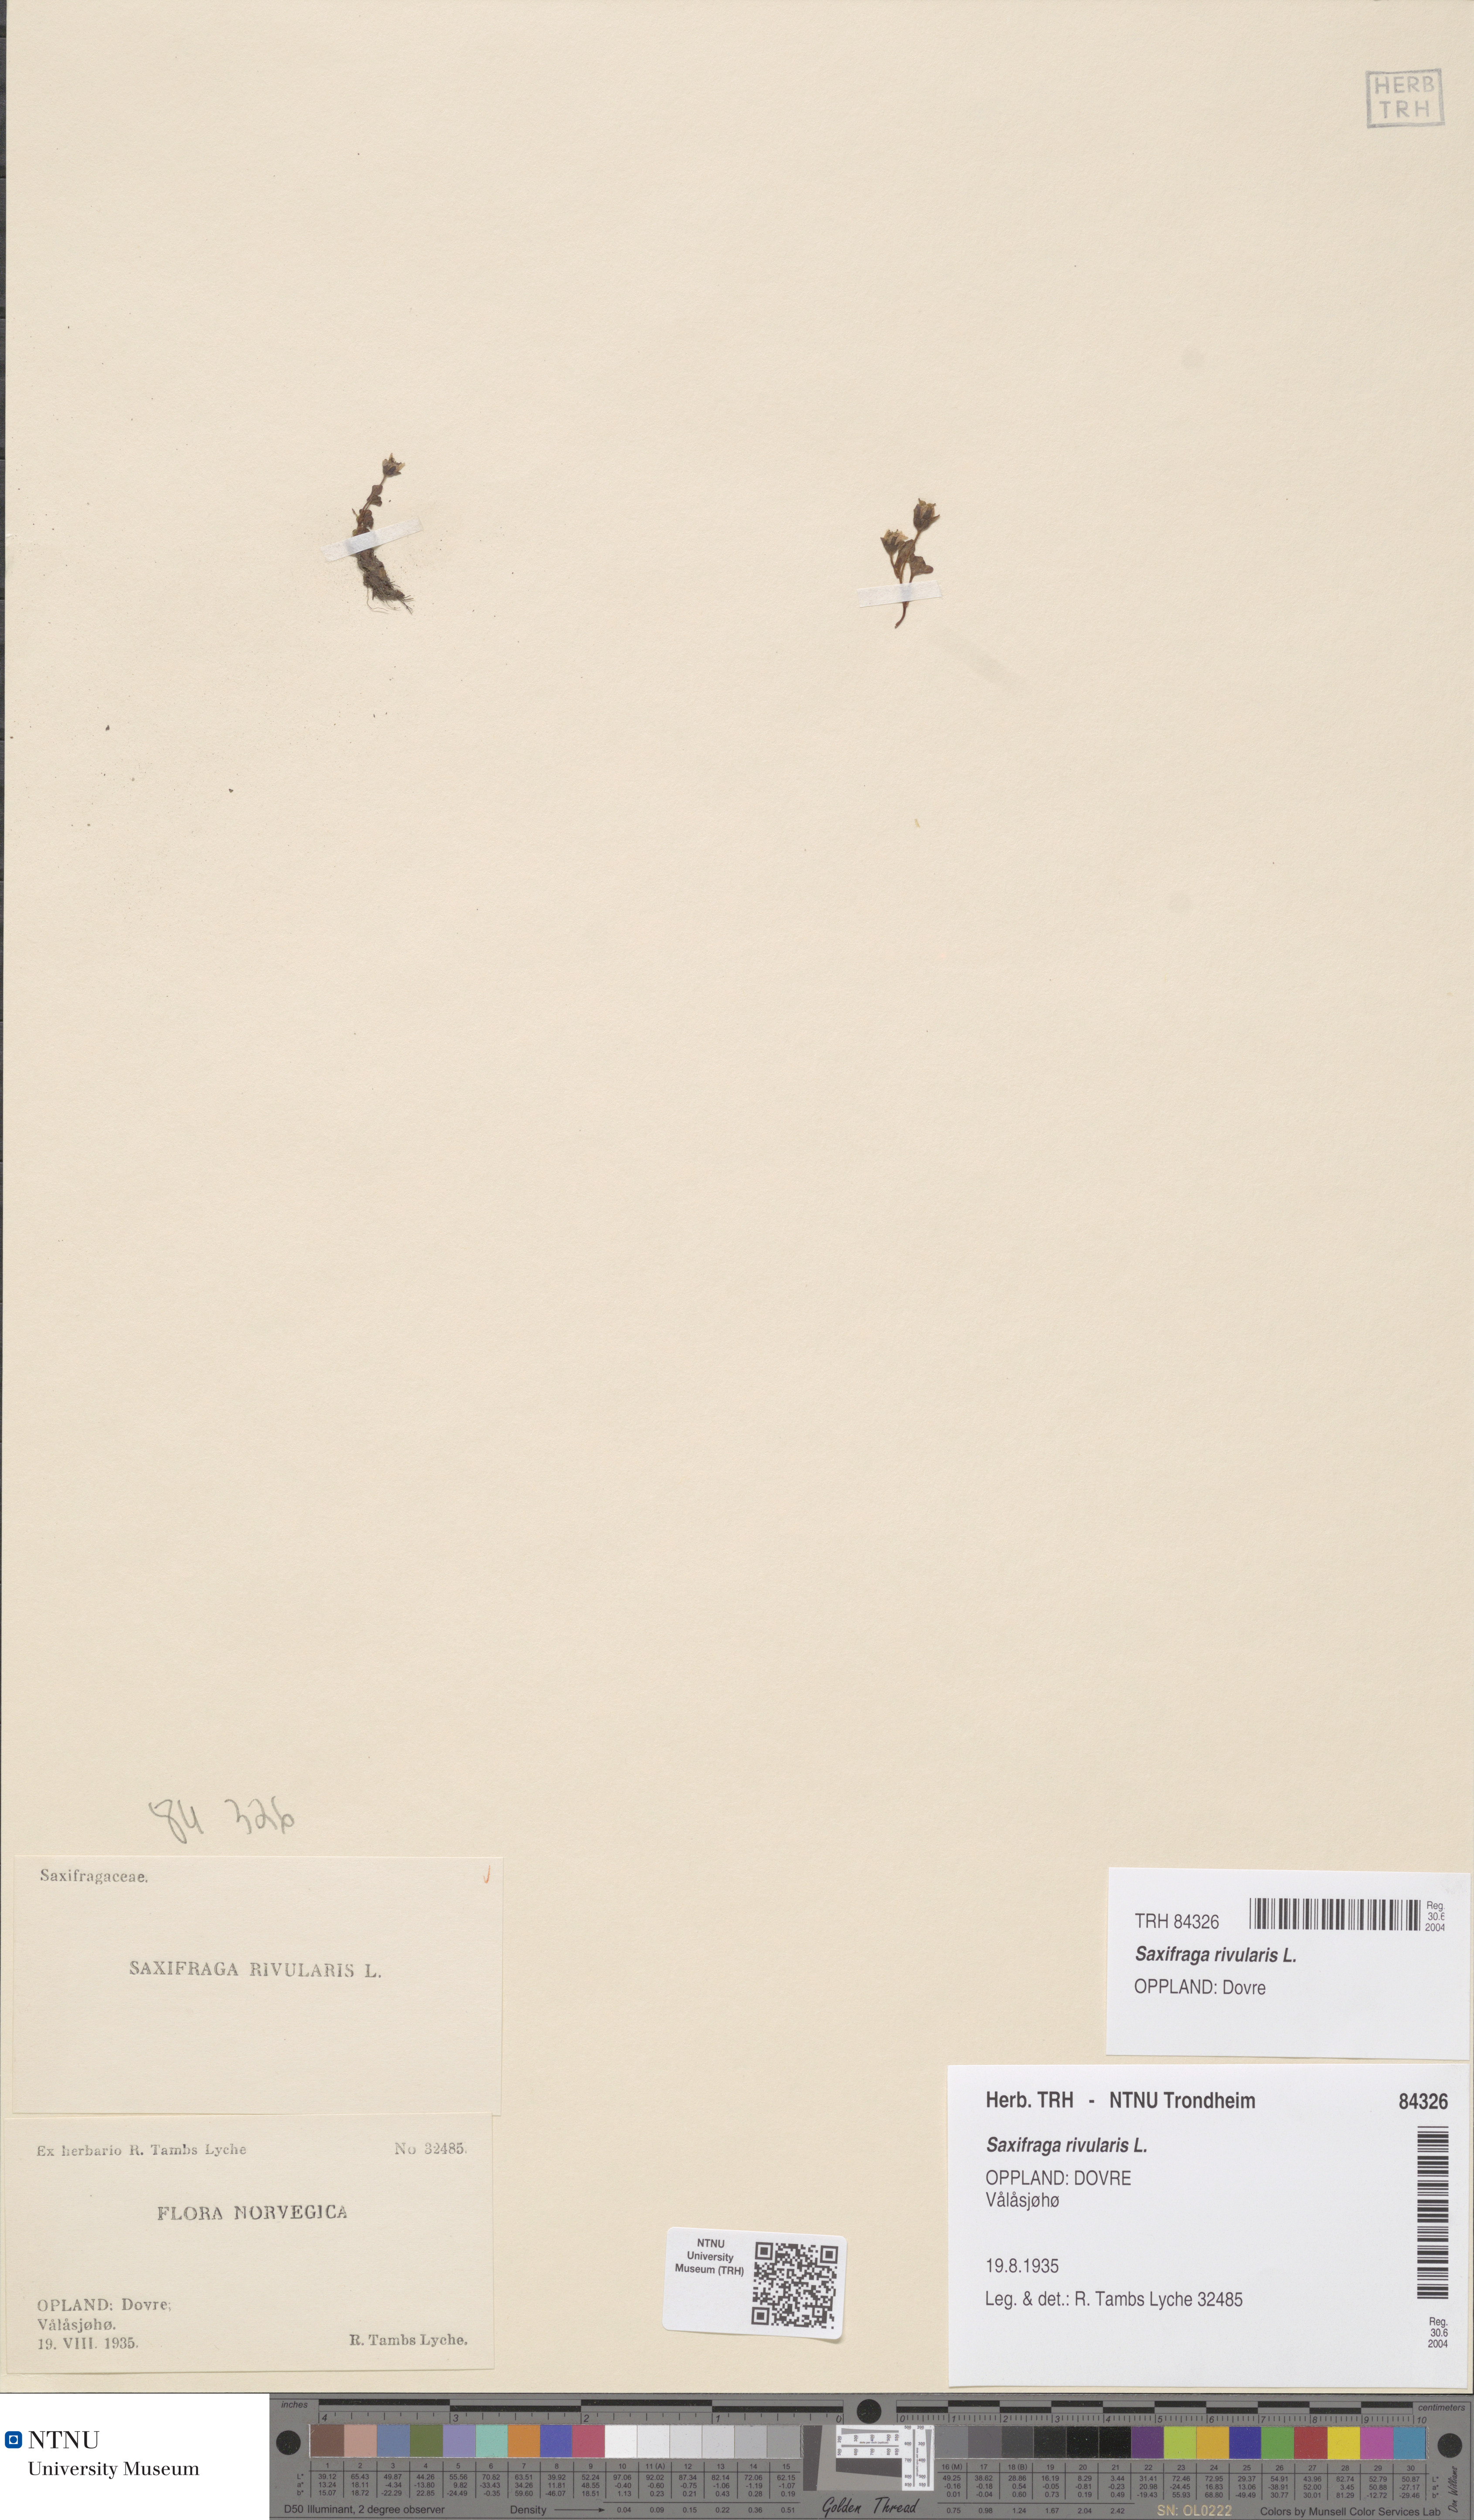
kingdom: Plantae
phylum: Tracheophyta
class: Magnoliopsida
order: Saxifragales
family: Saxifragaceae
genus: Saxifraga
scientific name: Saxifraga rivularis
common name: Highland saxifrage
